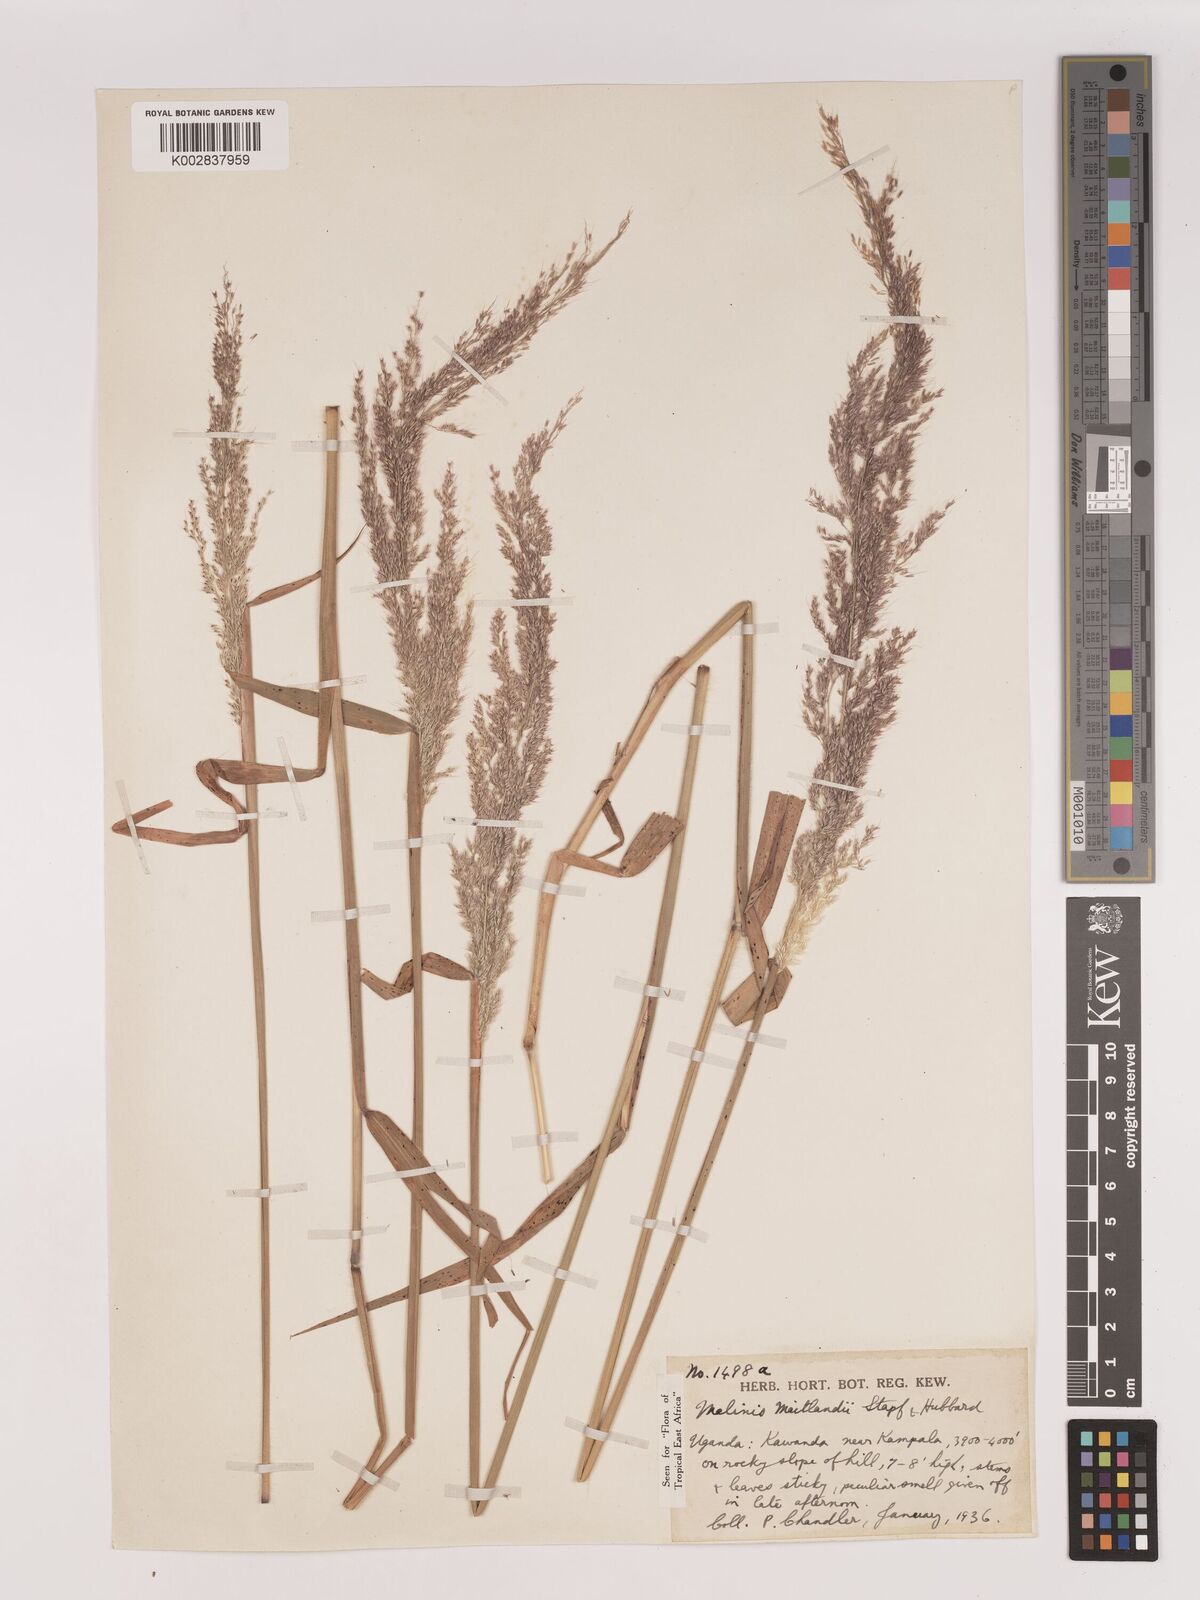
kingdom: Plantae
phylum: Tracheophyta
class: Liliopsida
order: Poales
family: Poaceae
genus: Melinis
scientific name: Melinis minutiflora
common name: Molassesgrass
